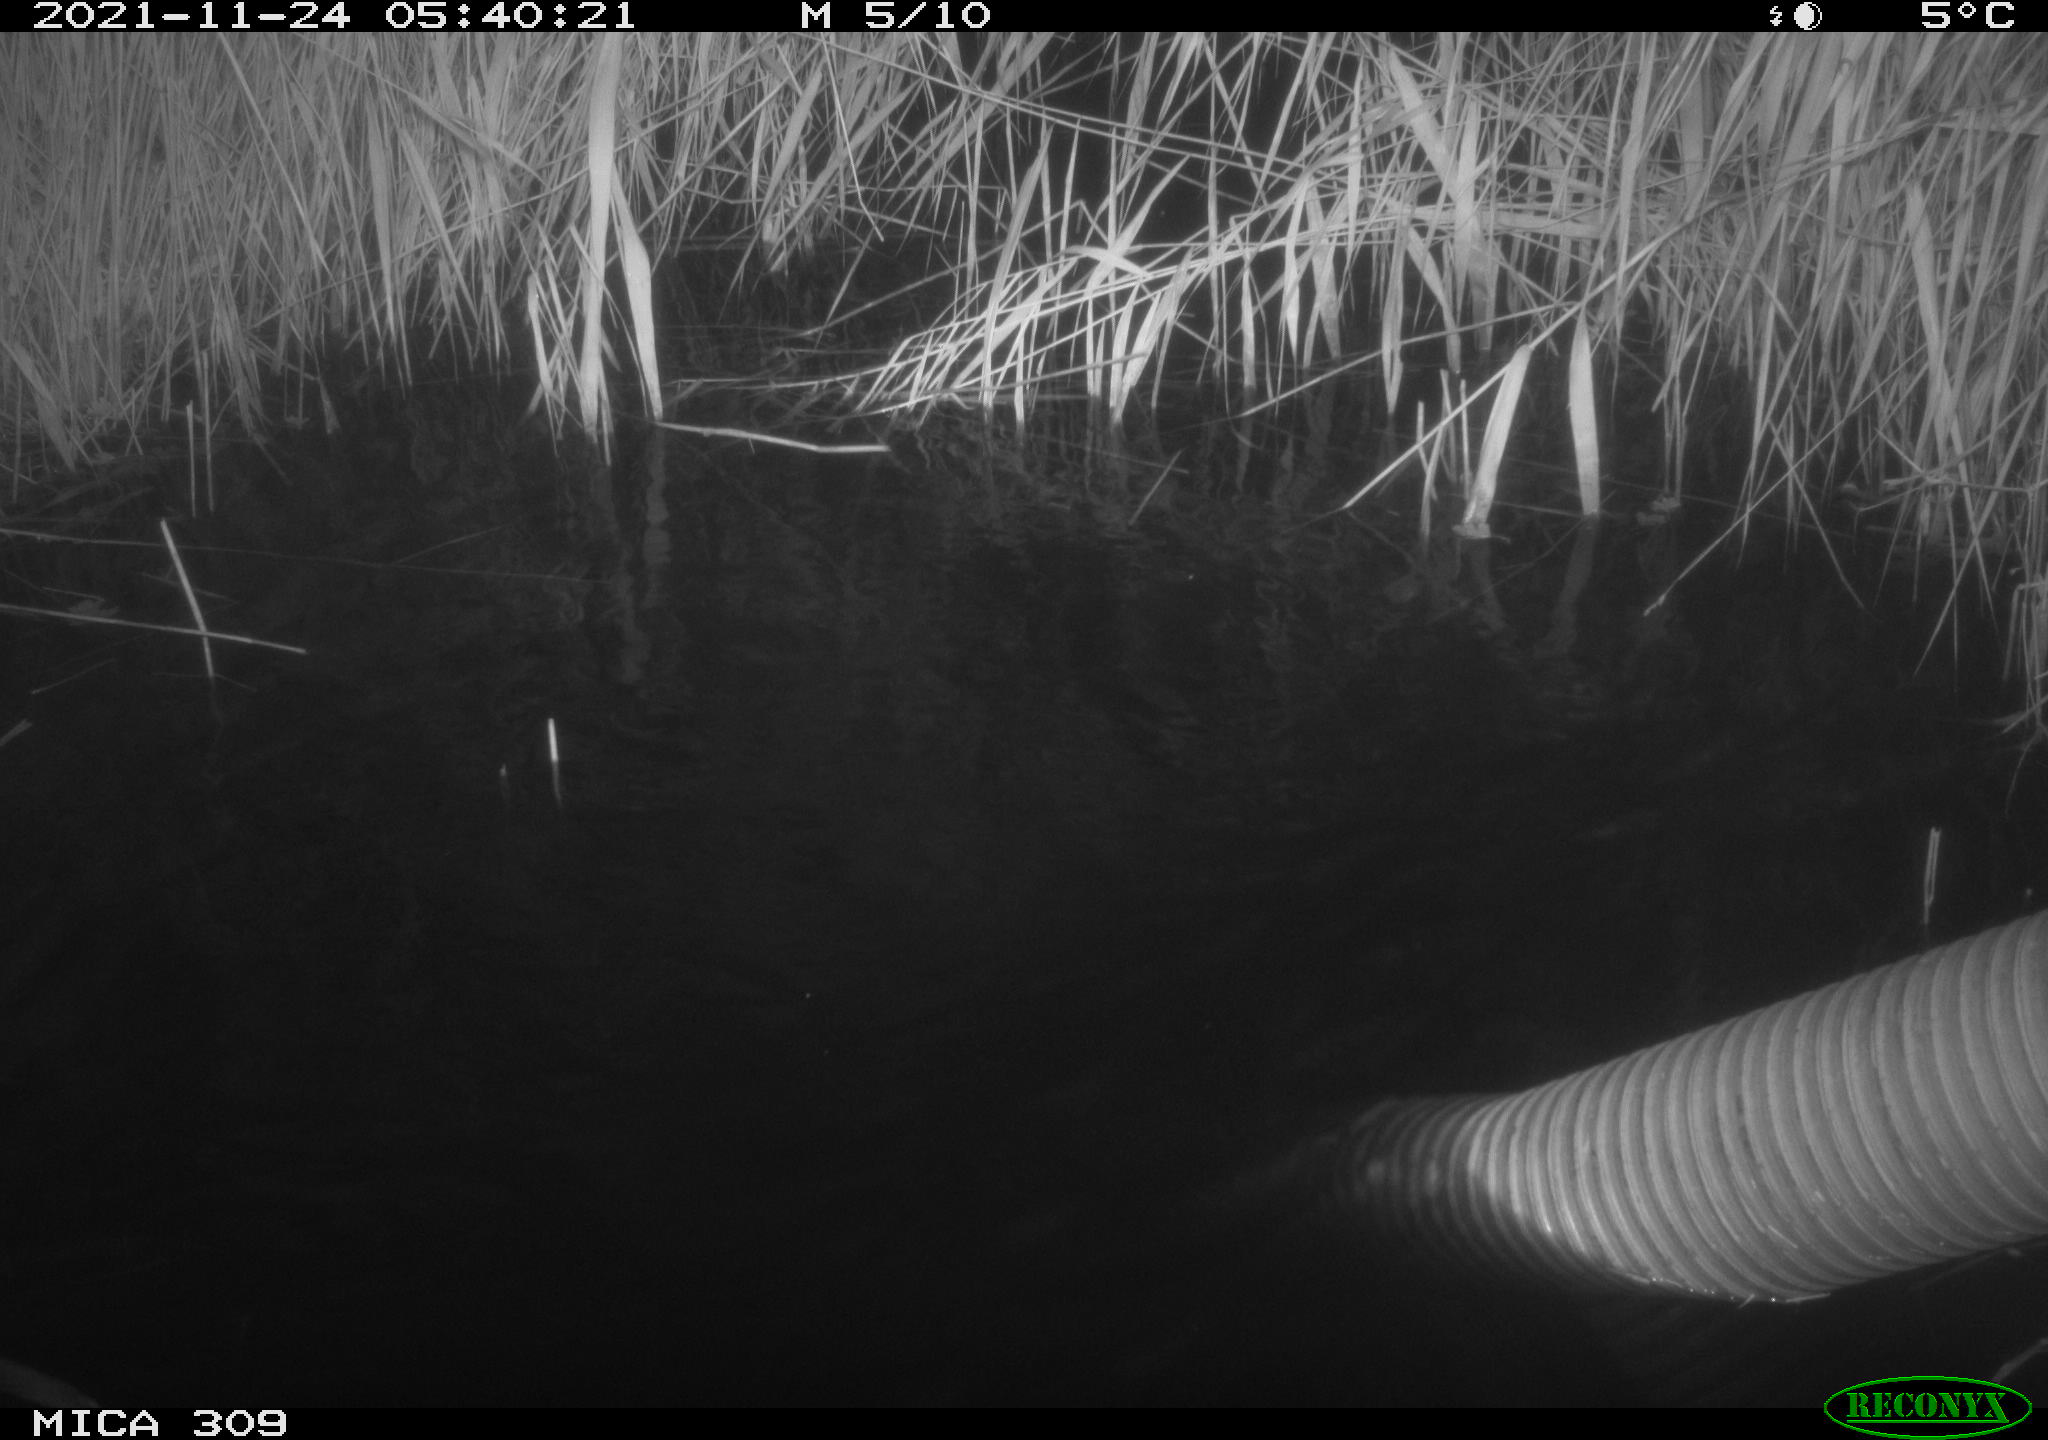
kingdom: Animalia
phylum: Chordata
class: Mammalia
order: Rodentia
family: Cricetidae
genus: Ondatra
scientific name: Ondatra zibethicus
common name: Muskrat
